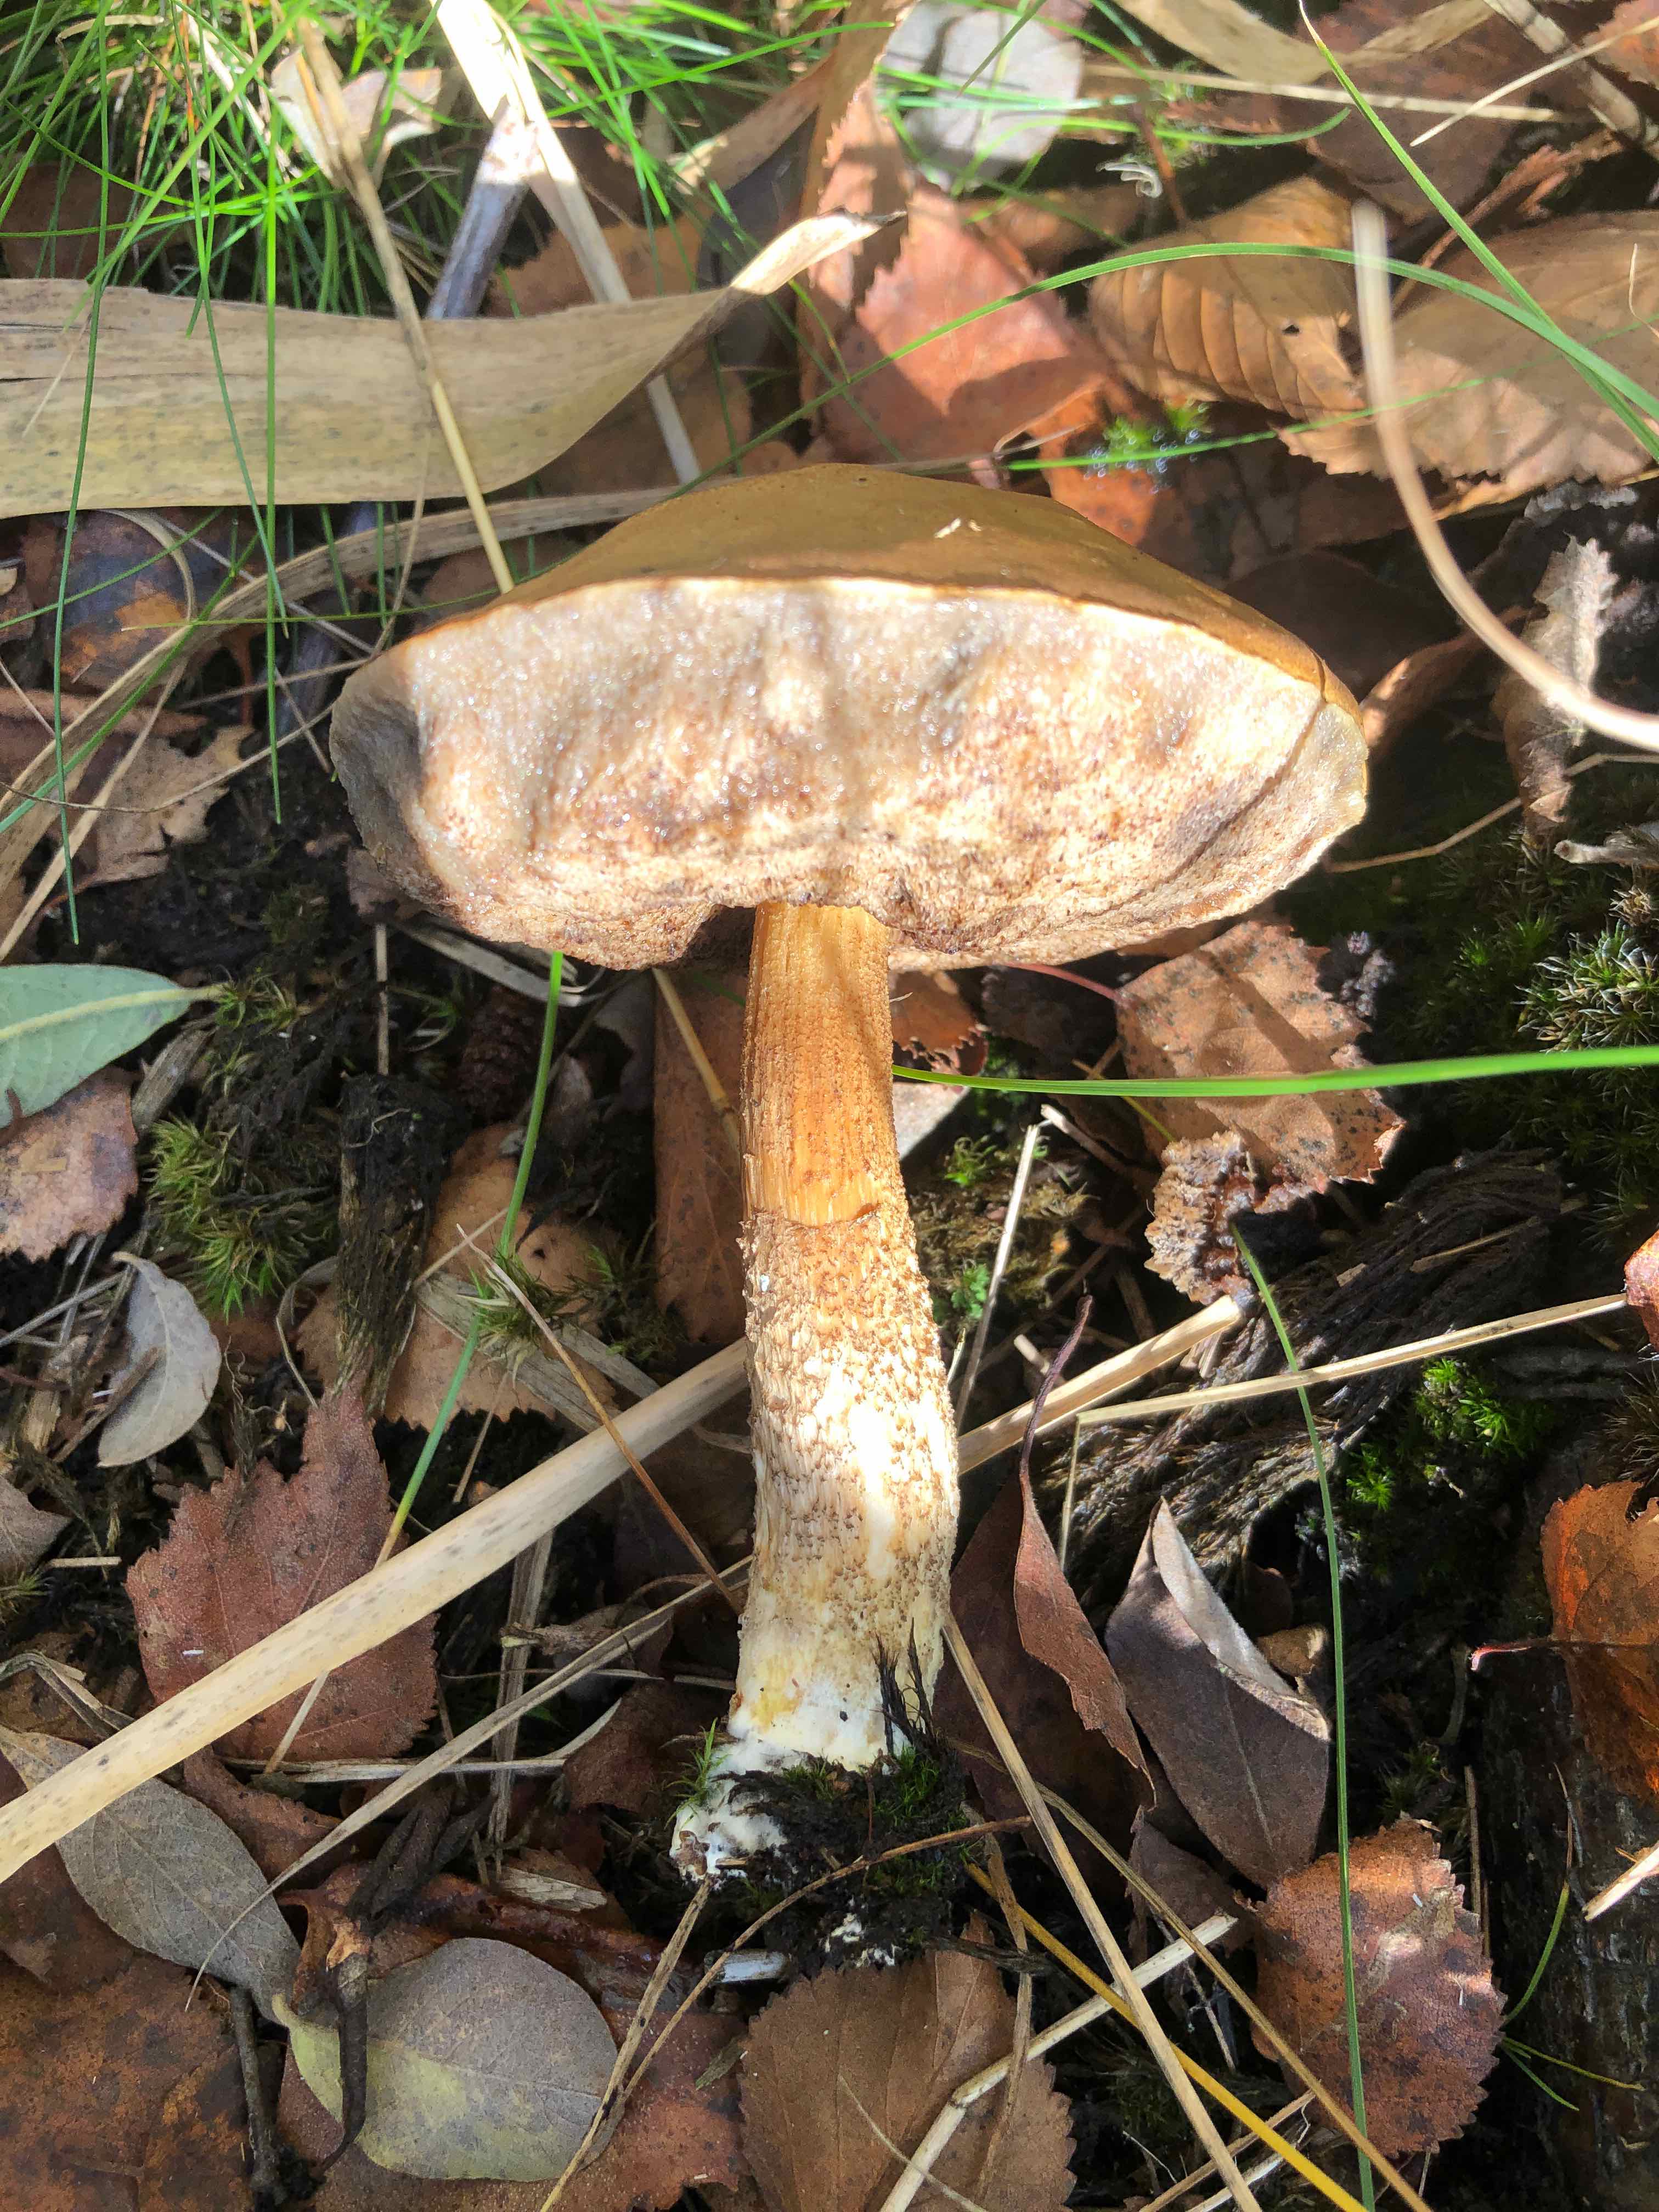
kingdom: Fungi
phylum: Basidiomycota
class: Agaricomycetes
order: Boletales
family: Boletaceae
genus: Leccinum
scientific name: Leccinum
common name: skælrørhat
